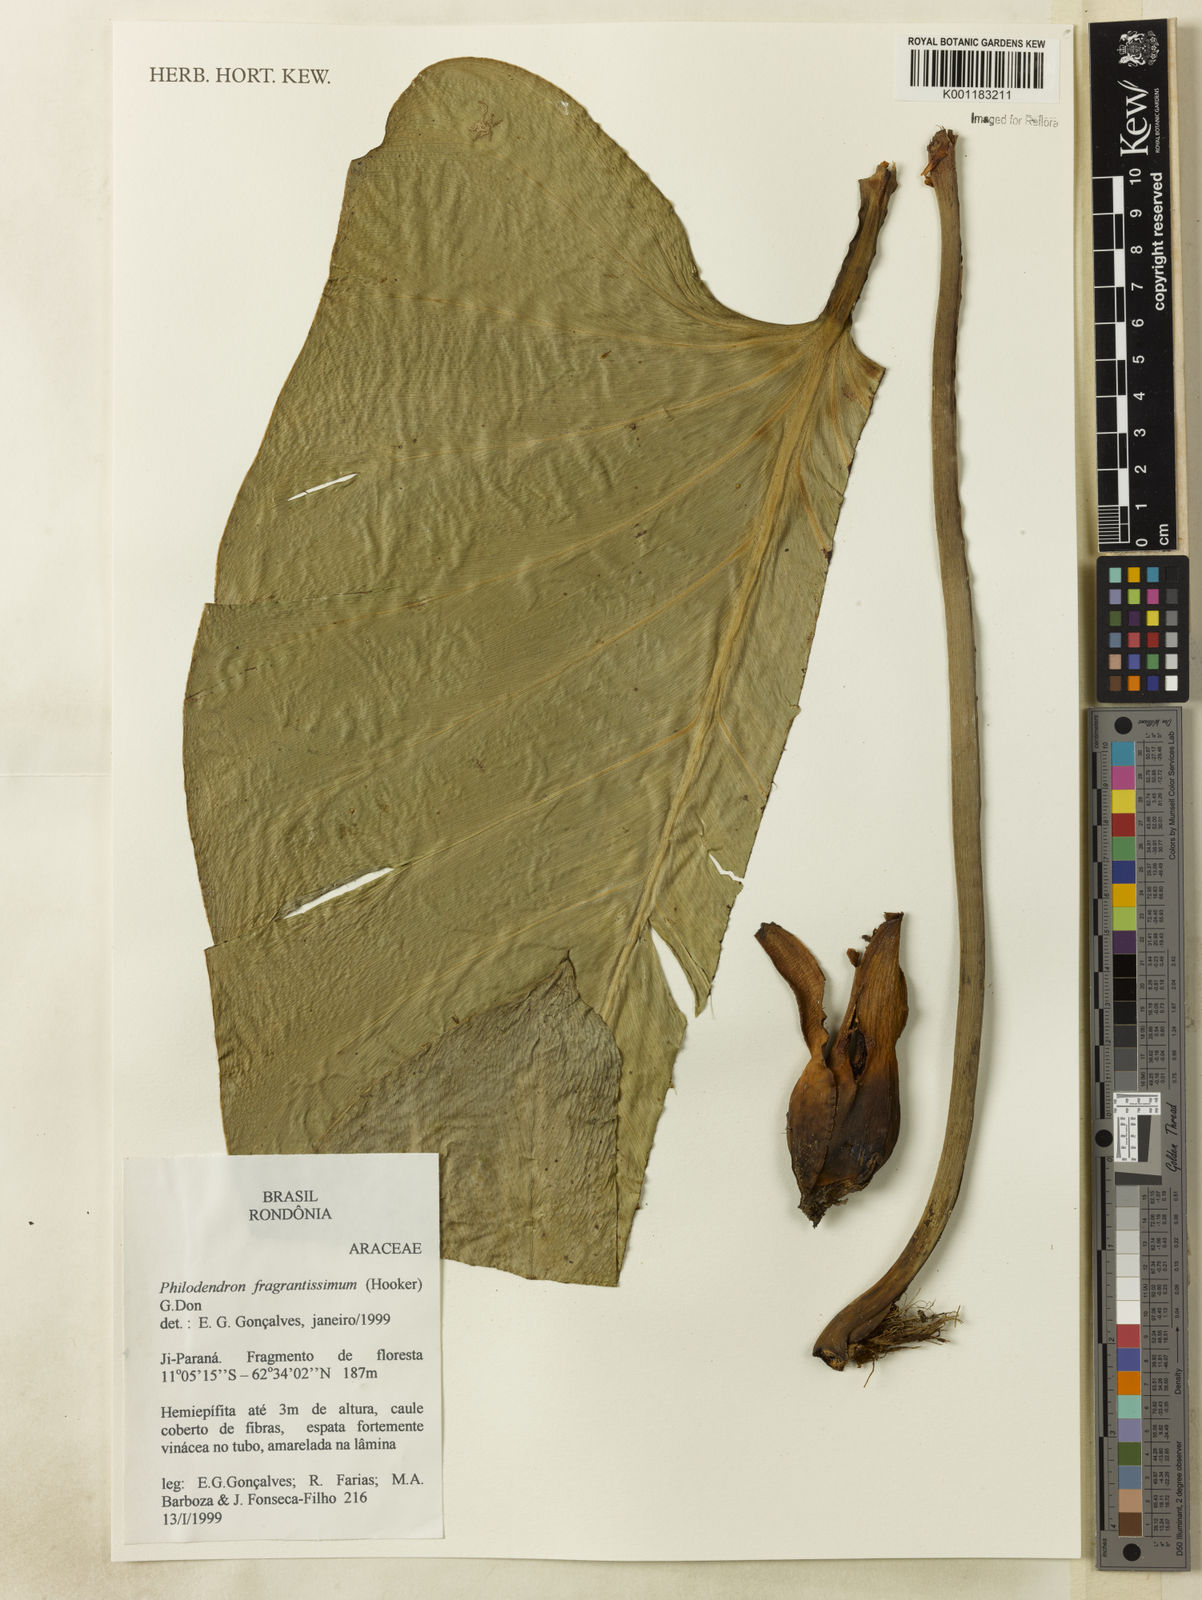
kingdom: Plantae
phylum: Tracheophyta
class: Liliopsida
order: Alismatales
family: Araceae
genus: Philodendron
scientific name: Philodendron fragrantissimum
